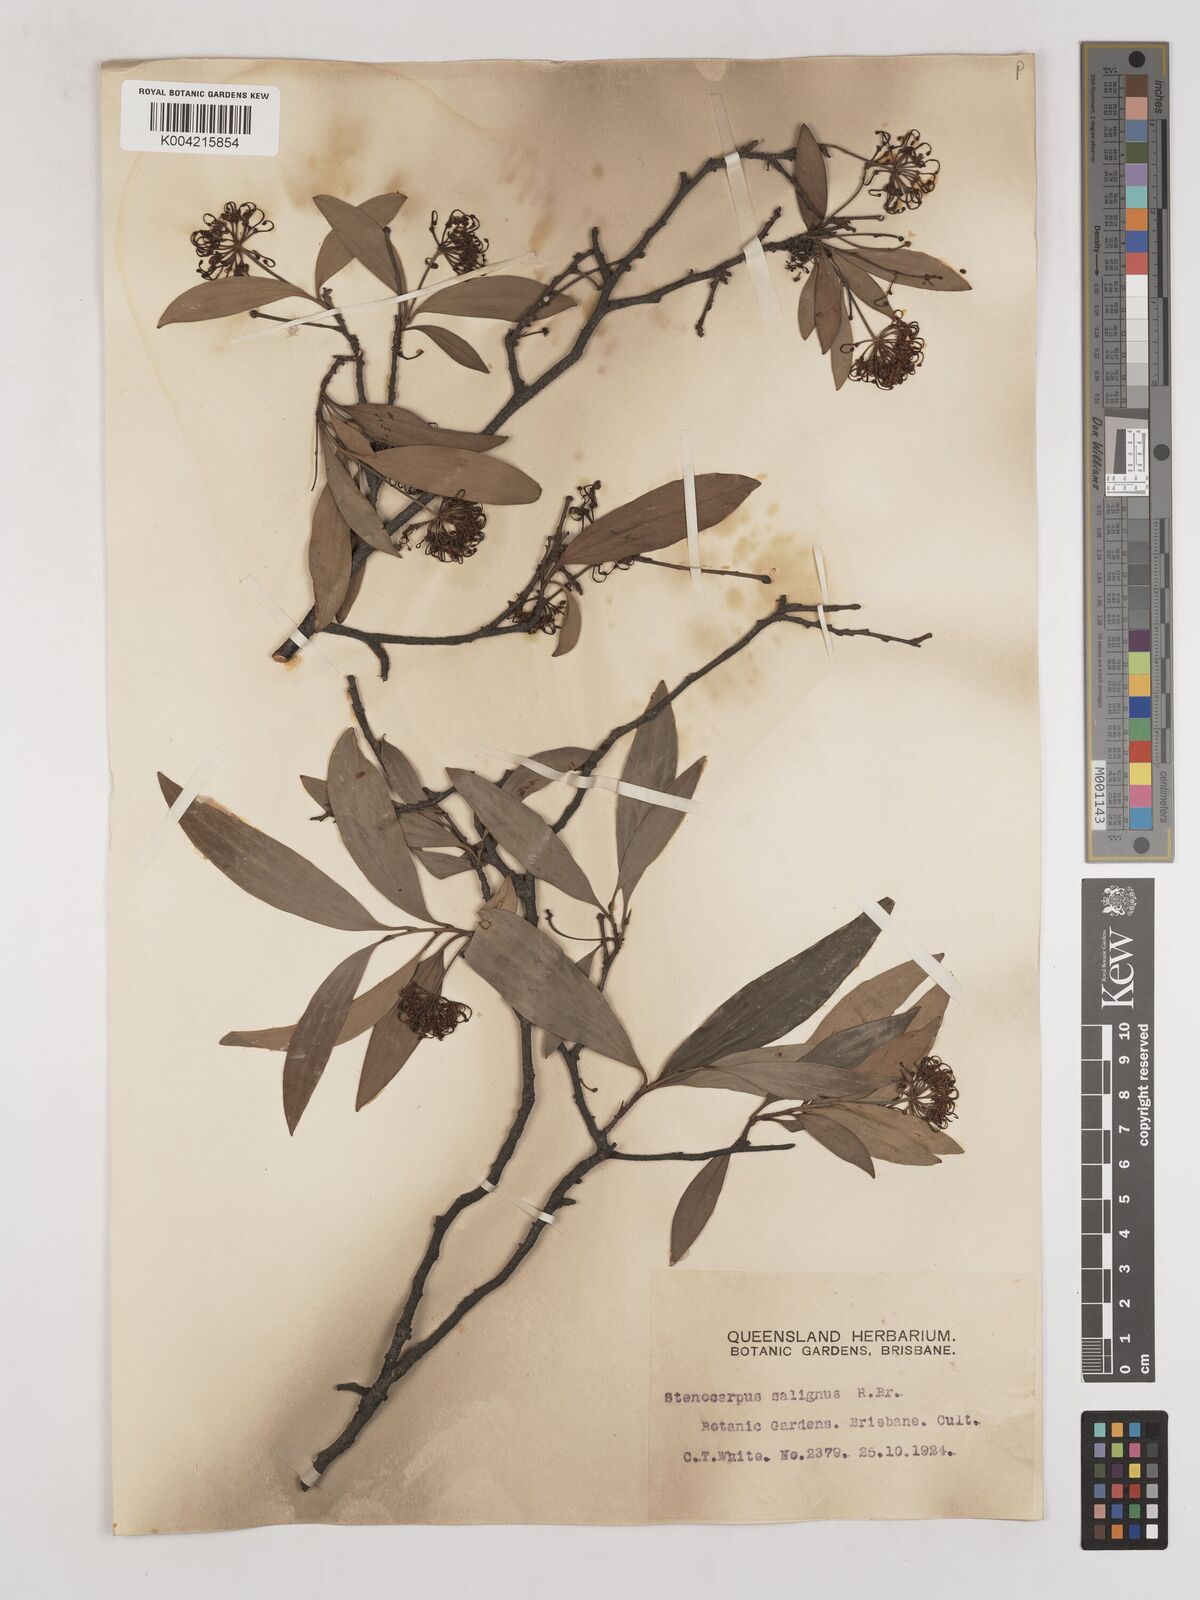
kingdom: Plantae
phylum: Tracheophyta
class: Magnoliopsida
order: Proteales
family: Proteaceae
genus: Stenocarpus
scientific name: Stenocarpus salignus
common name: Red silky-oak
